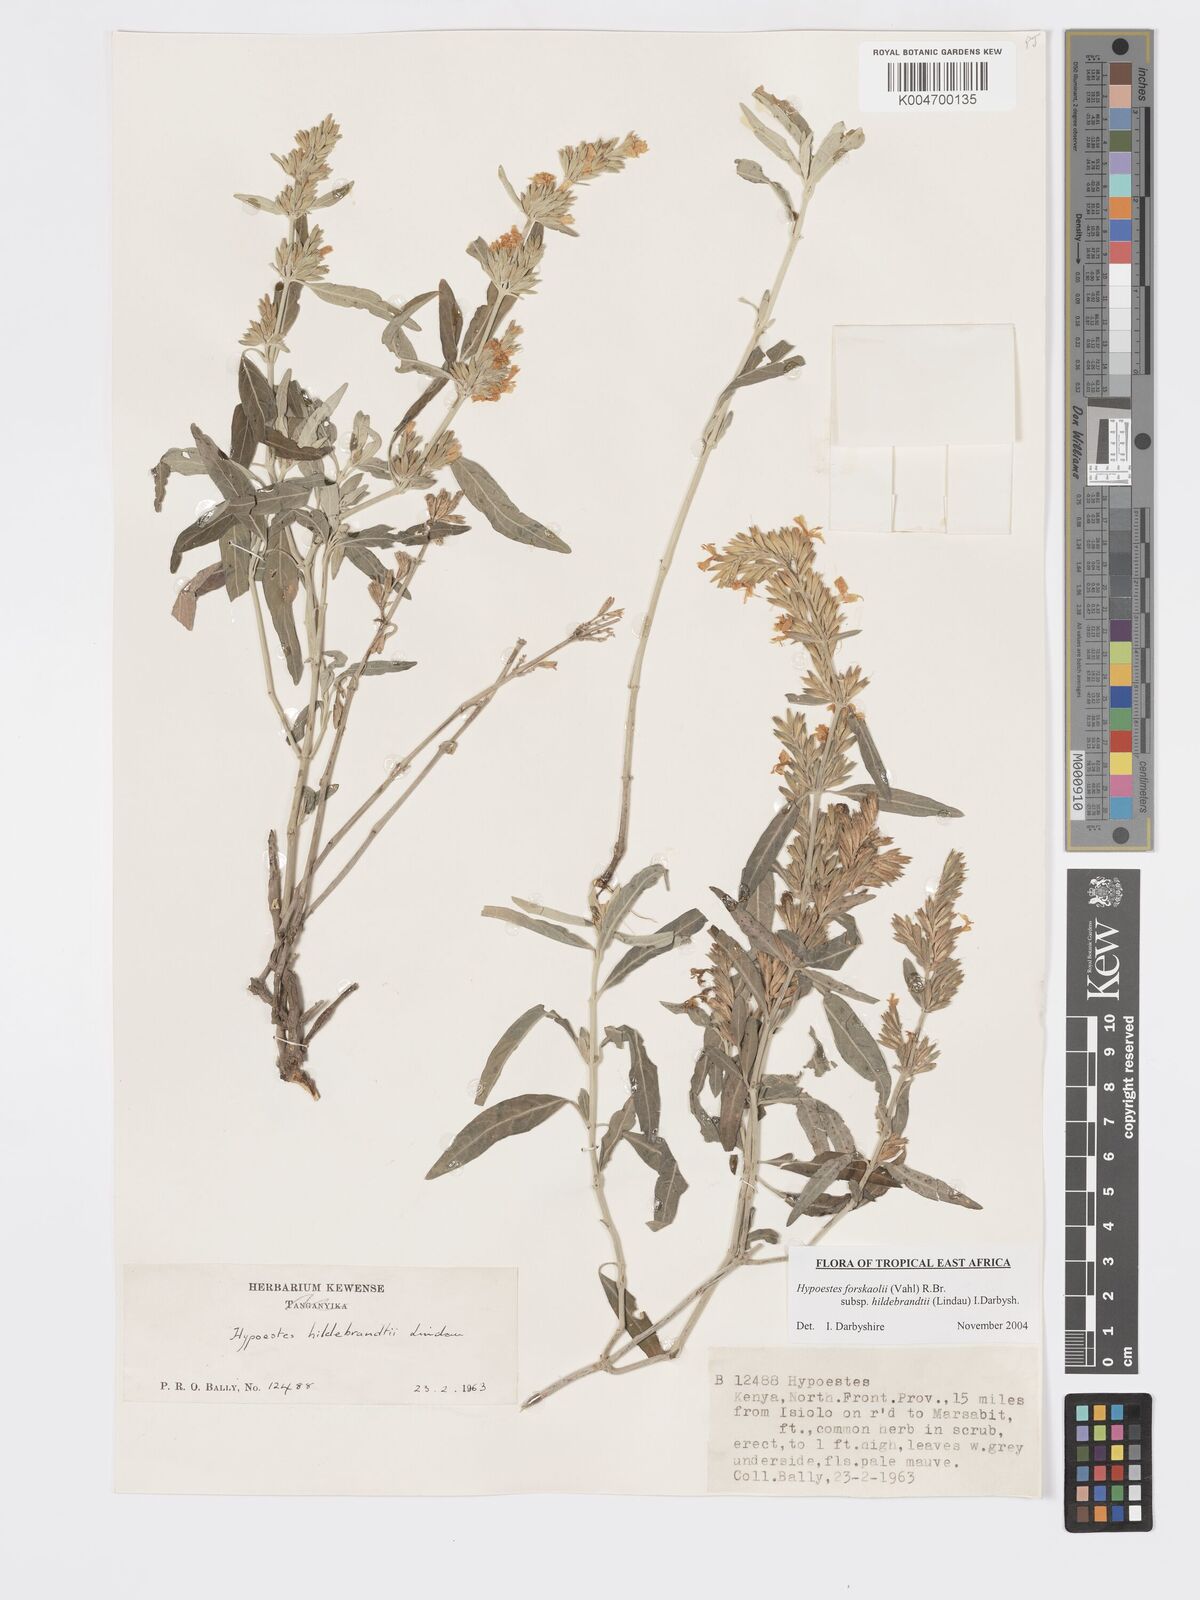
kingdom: Plantae
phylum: Tracheophyta
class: Magnoliopsida
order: Lamiales
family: Acanthaceae
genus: Hypoestes
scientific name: Hypoestes forskaolii
